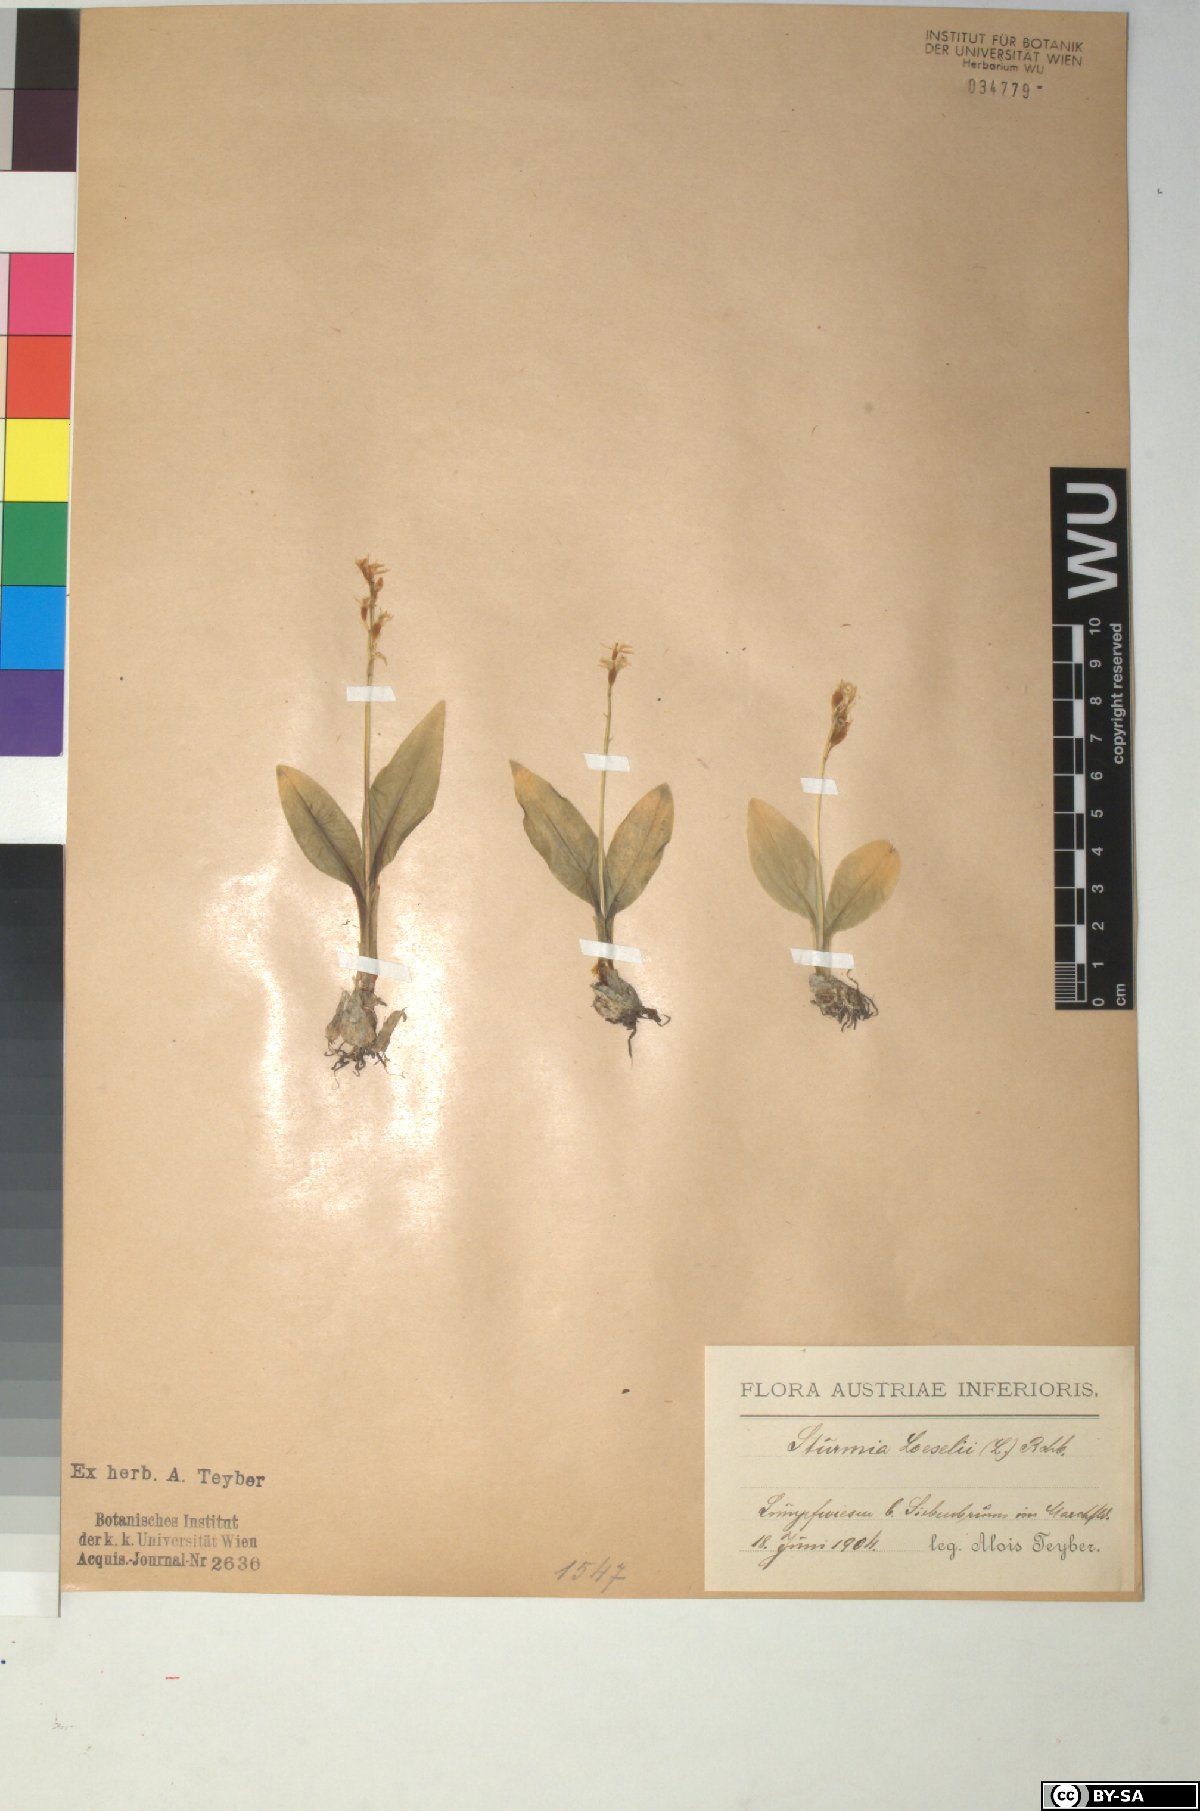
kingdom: Animalia
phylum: Arthropoda
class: Insecta
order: Coleoptera
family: Curculionidae
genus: Liparis
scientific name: Liparis loeselii
